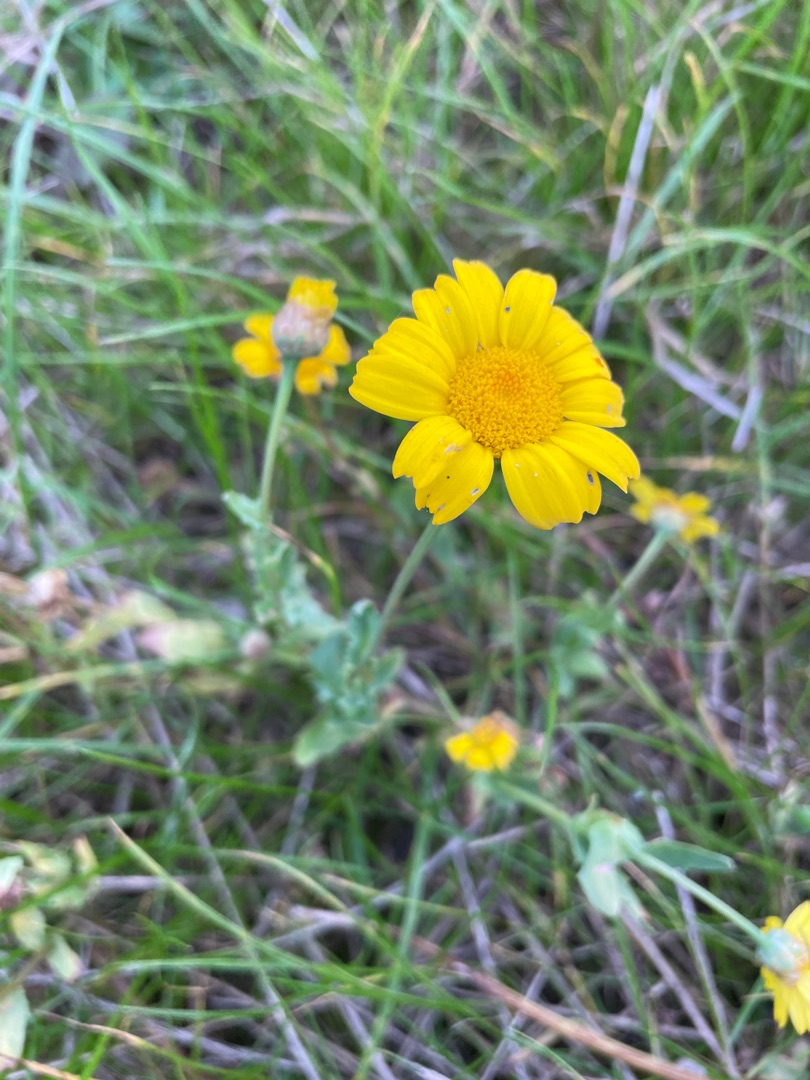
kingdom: Plantae
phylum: Tracheophyta
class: Magnoliopsida
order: Asterales
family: Asteraceae
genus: Glebionis
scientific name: Glebionis segetum
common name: Gul okseøje
